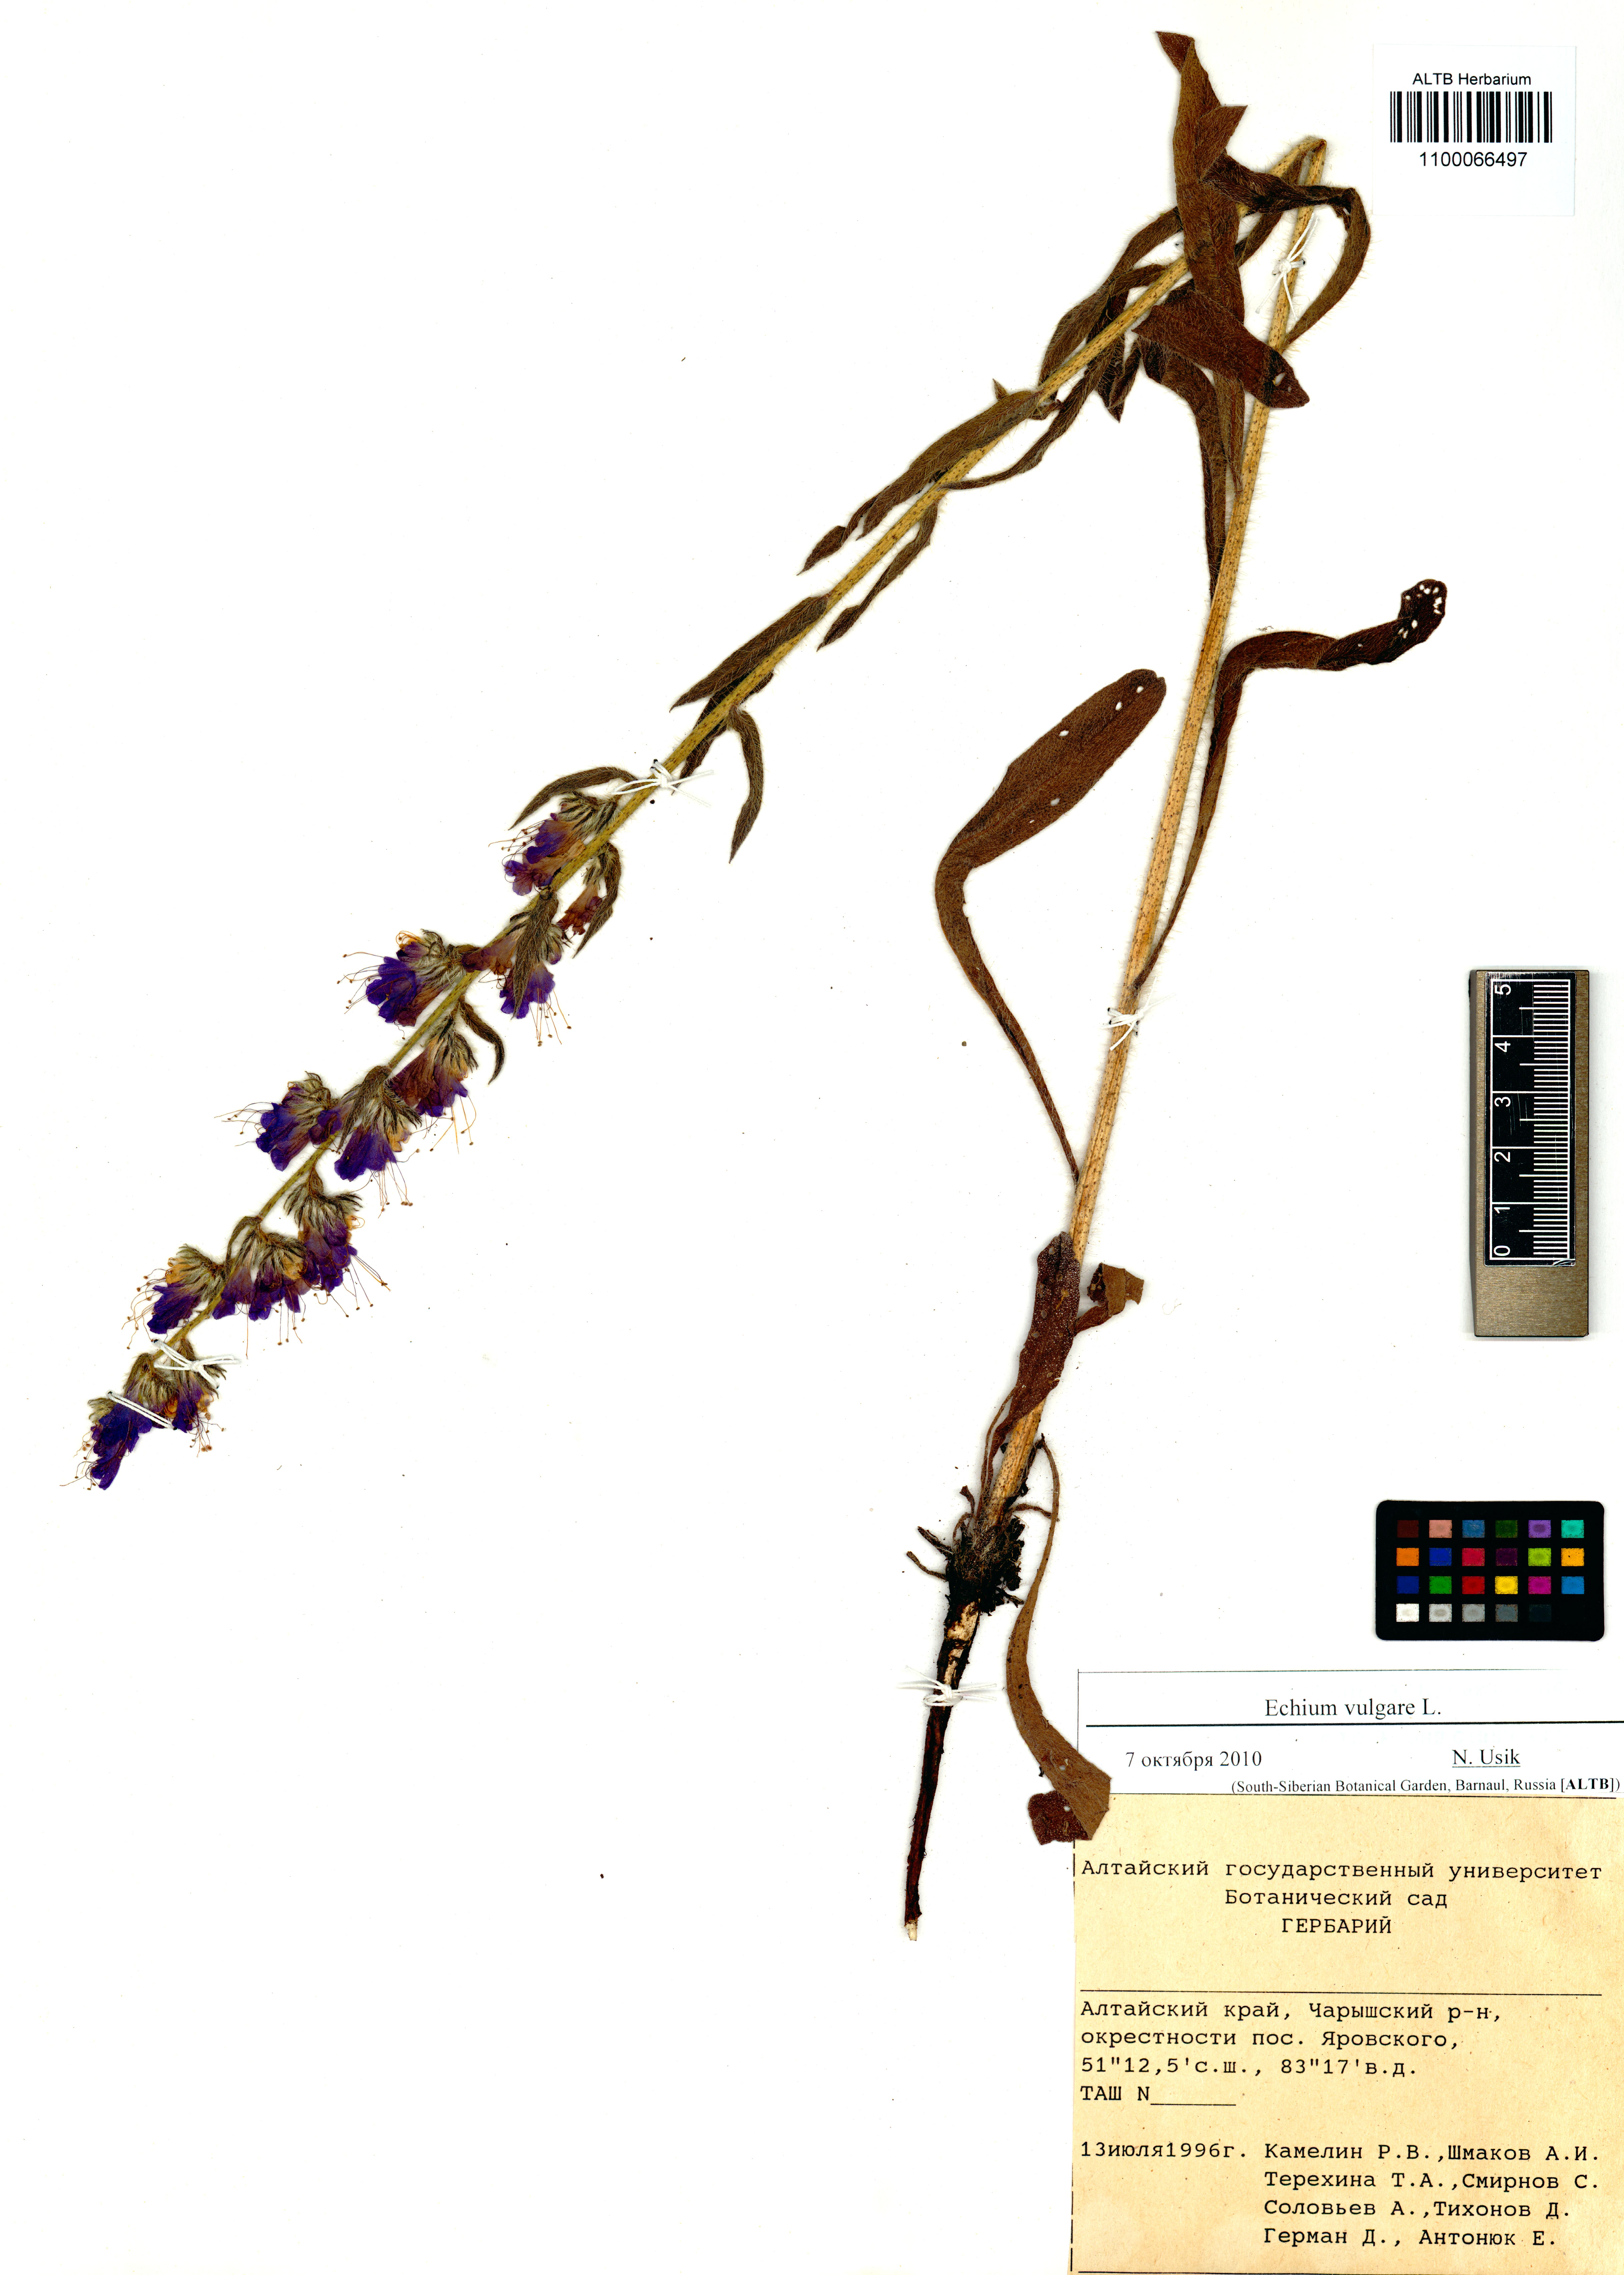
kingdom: Plantae
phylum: Tracheophyta
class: Magnoliopsida
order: Boraginales
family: Boraginaceae
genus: Echium
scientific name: Echium vulgare
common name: Common viper's bugloss
